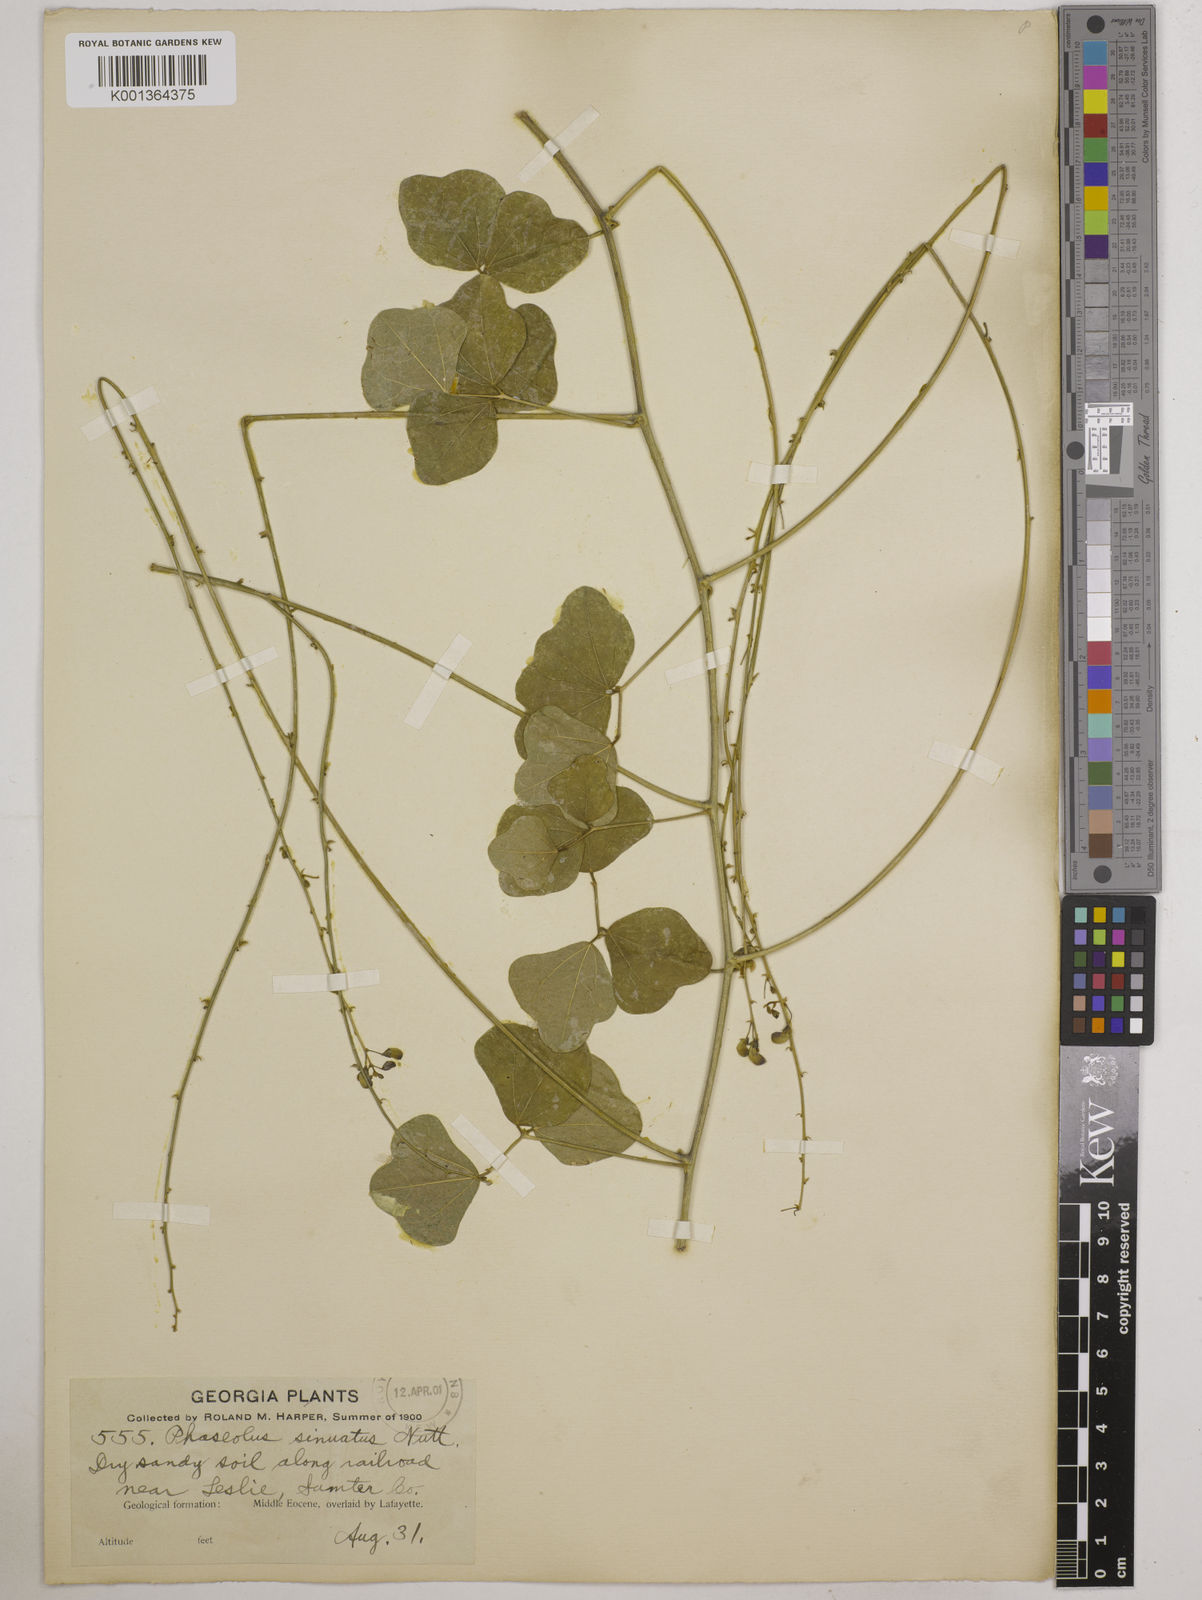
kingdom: Plantae
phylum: Tracheophyta
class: Magnoliopsida
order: Fabales
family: Fabaceae
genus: Phaseolus
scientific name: Phaseolus
